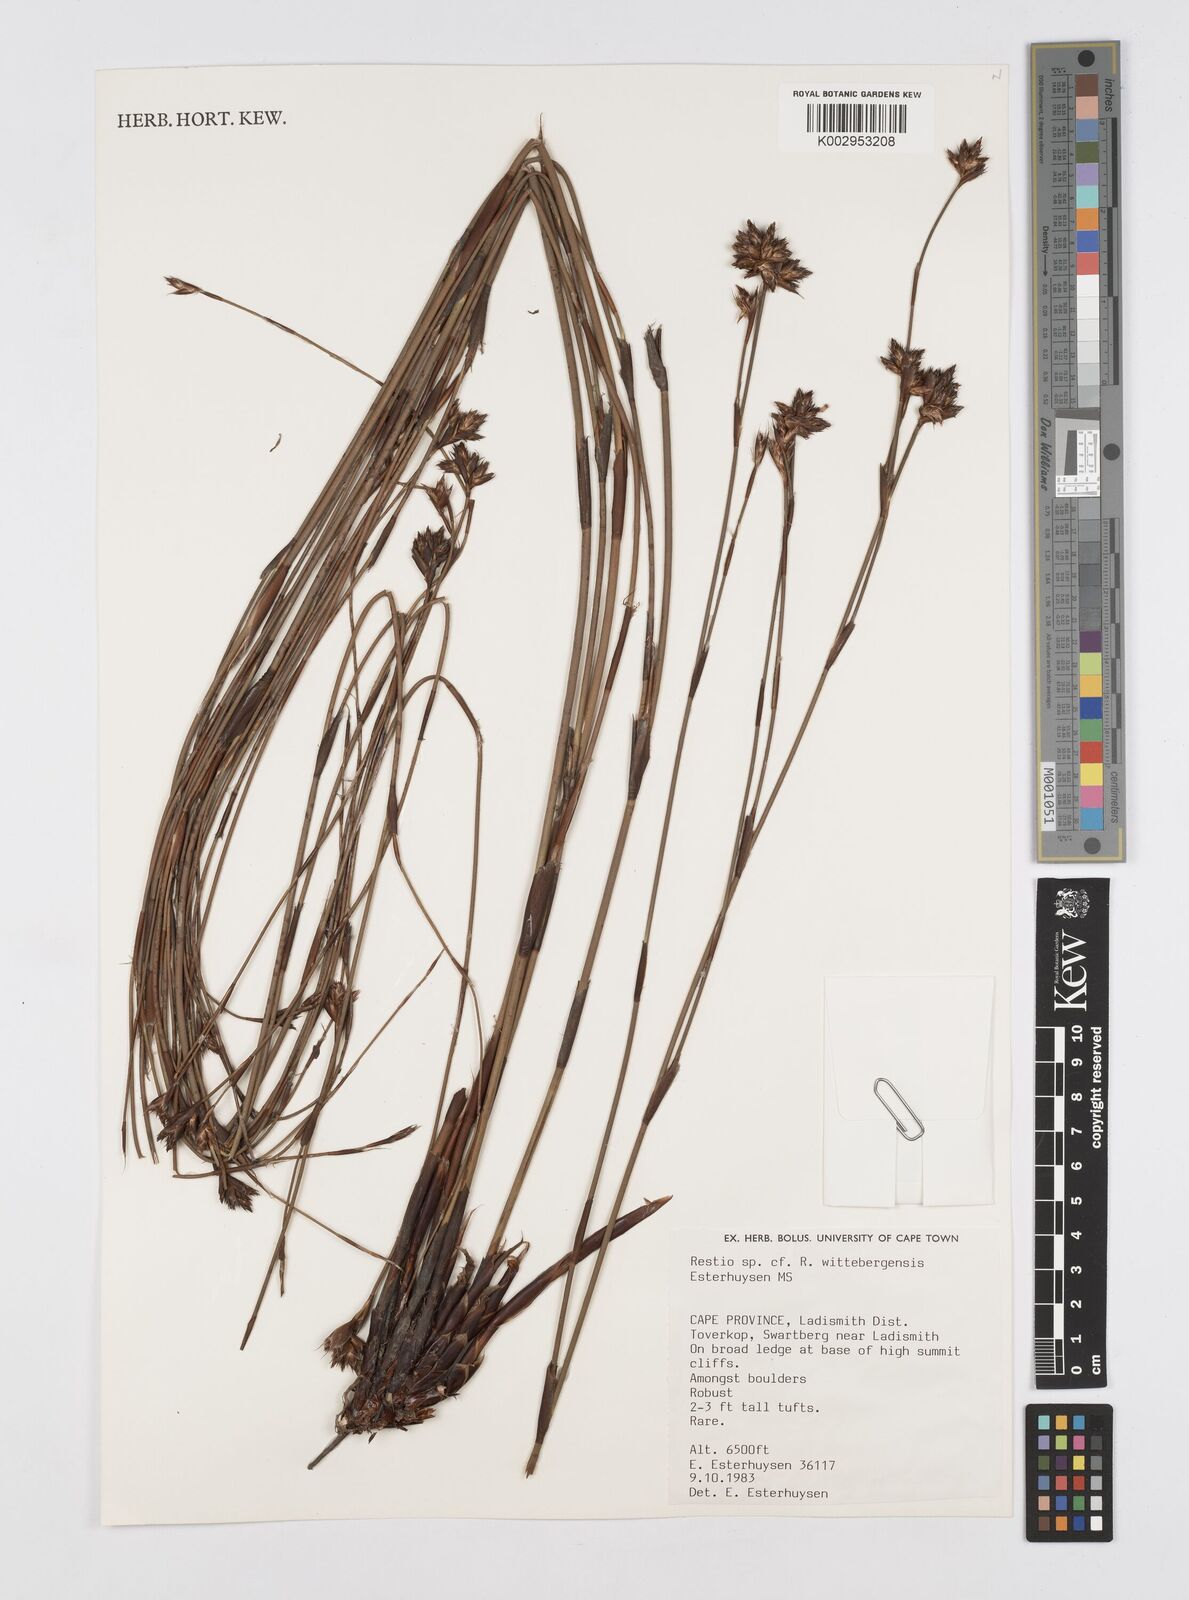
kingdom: Plantae
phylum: Tracheophyta
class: Liliopsida
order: Poales
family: Restionaceae
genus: Restio
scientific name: Restio wittebergensis
